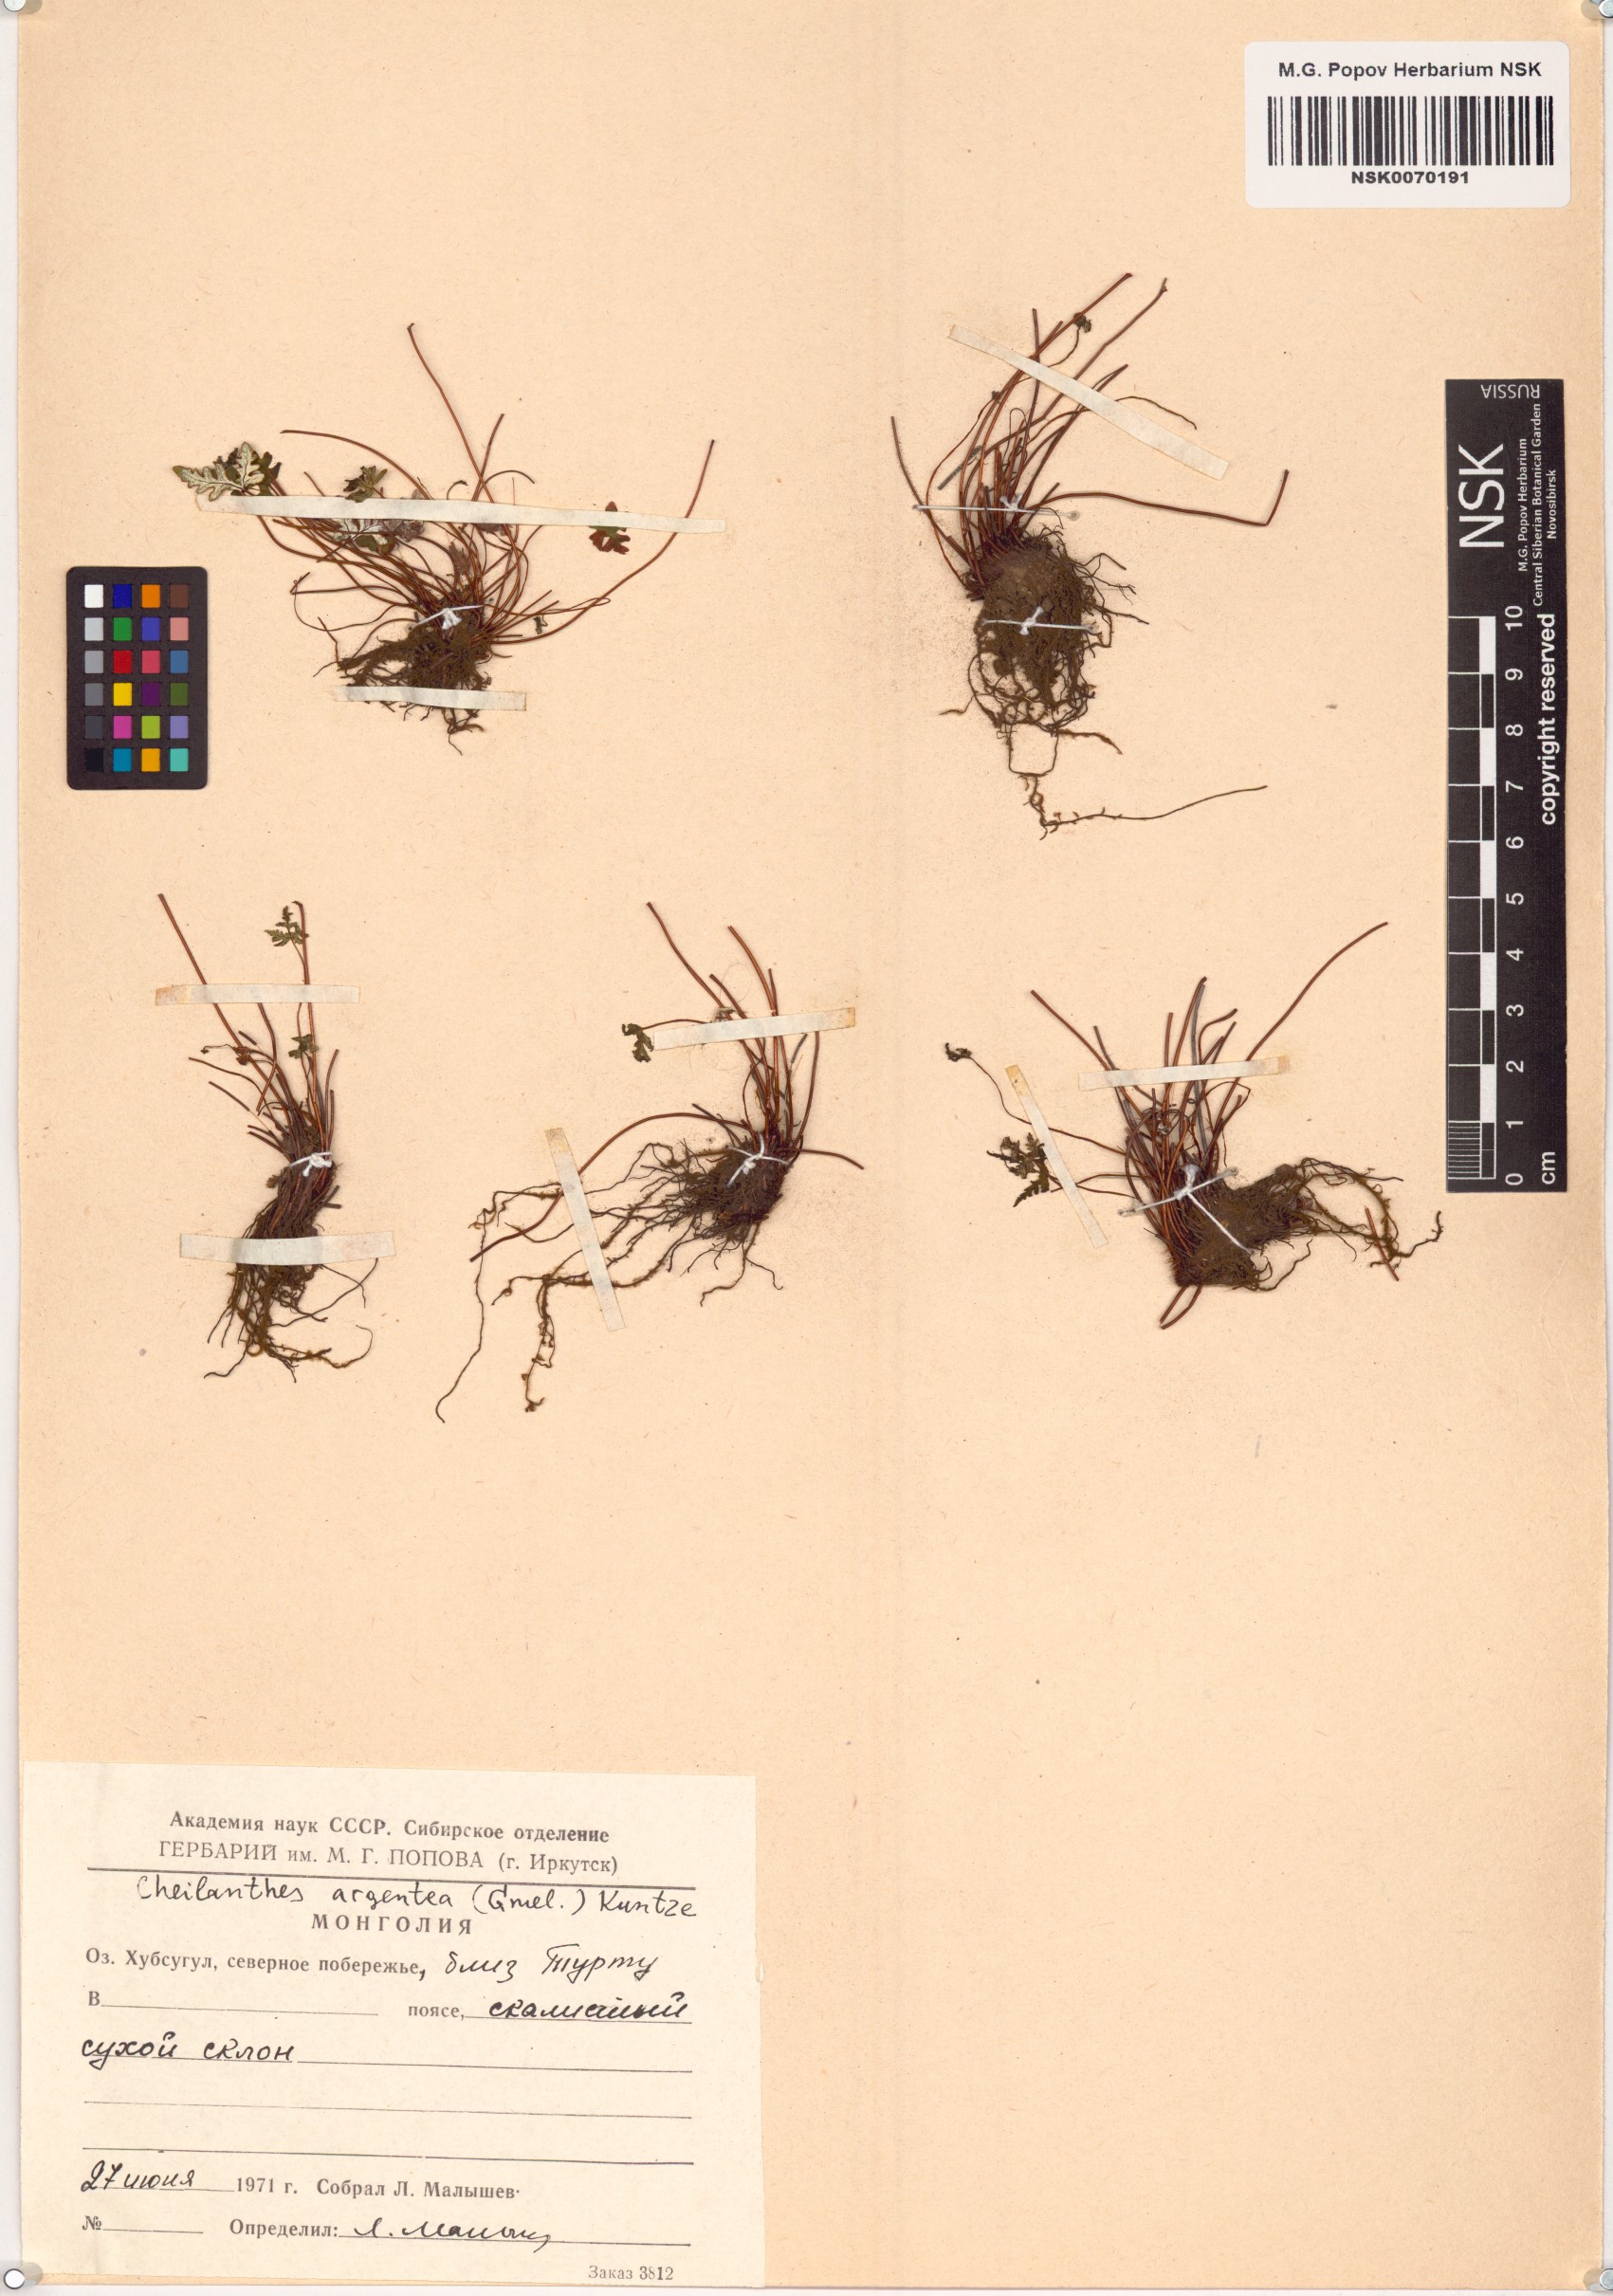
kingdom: Plantae
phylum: Tracheophyta
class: Polypodiopsida
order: Polypodiales
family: Pteridaceae
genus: Aleuritopteris
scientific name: Aleuritopteris argentea
